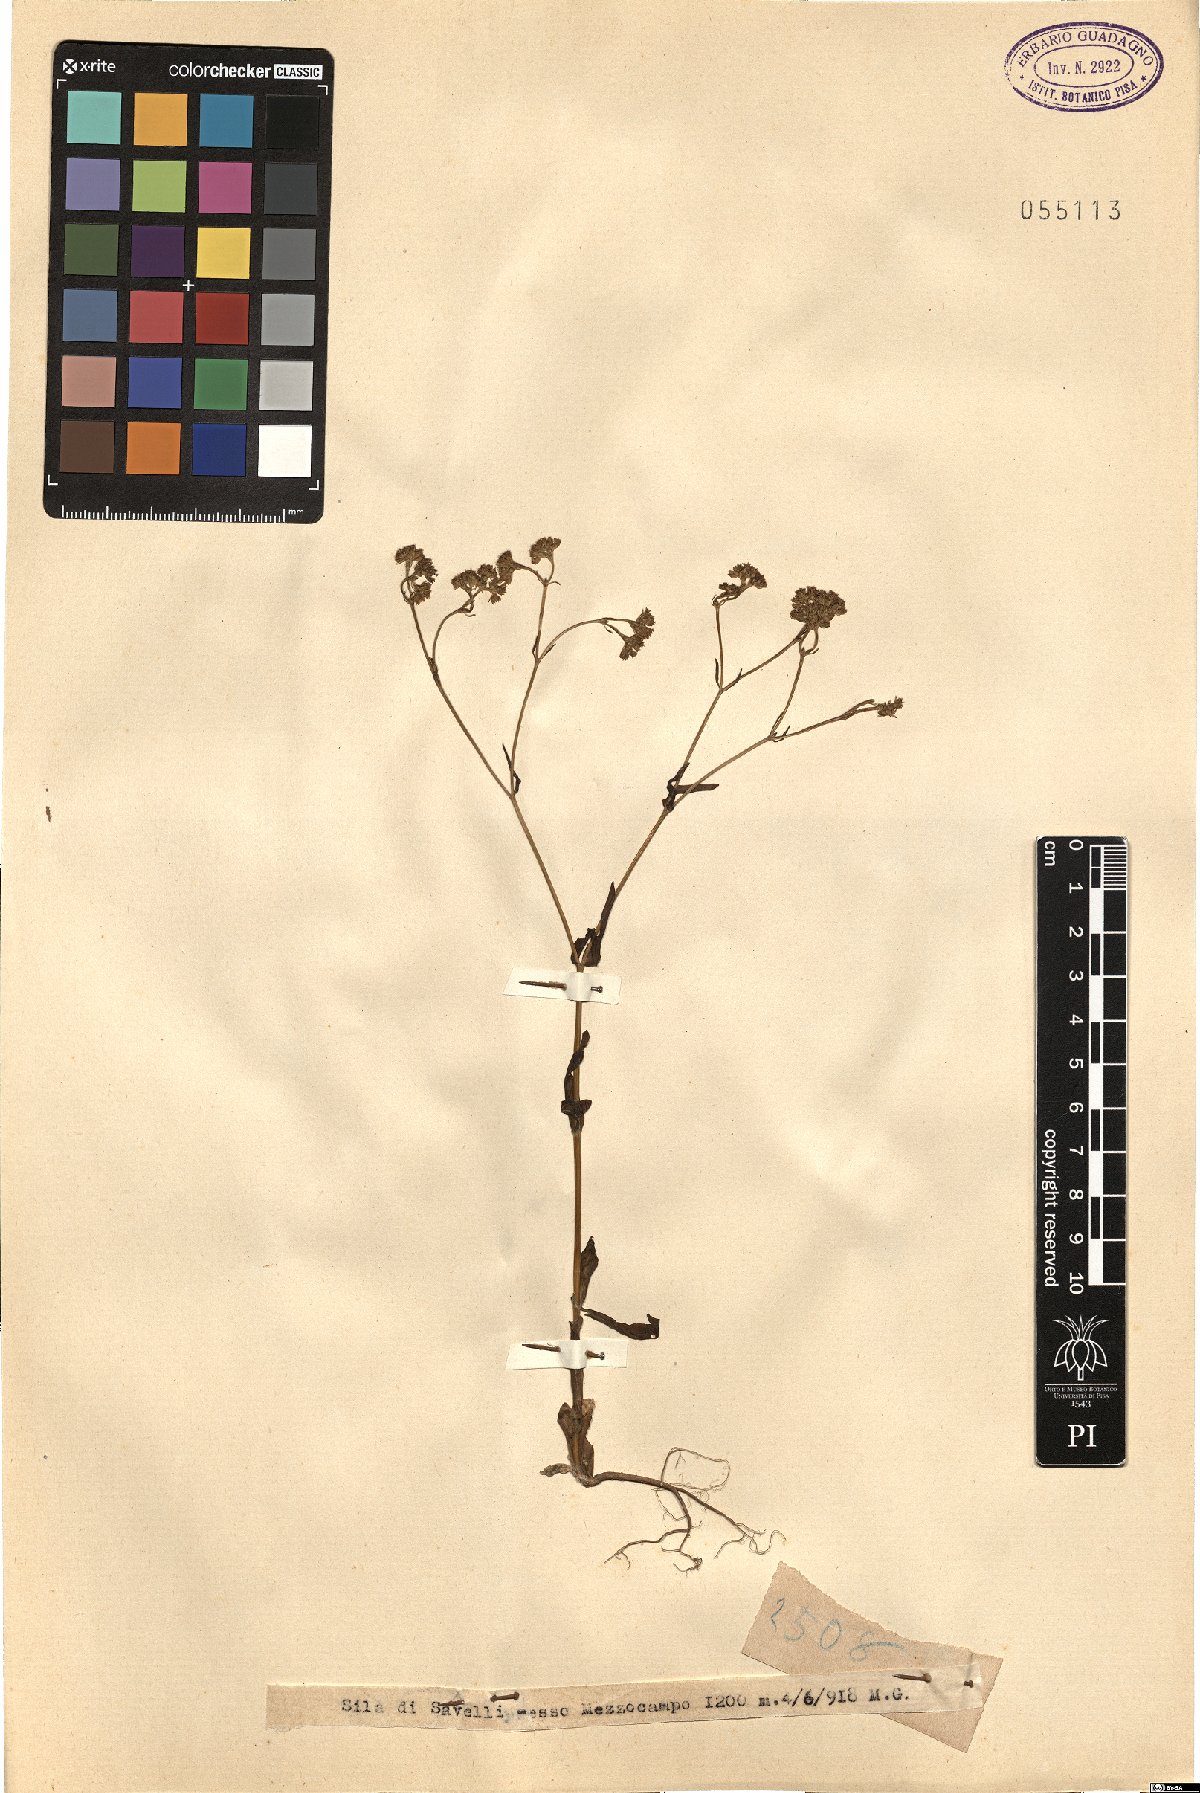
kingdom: Plantae
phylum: Tracheophyta
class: Magnoliopsida
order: Dipsacales
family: Caprifoliaceae
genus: Valerianella
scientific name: Valerianella
